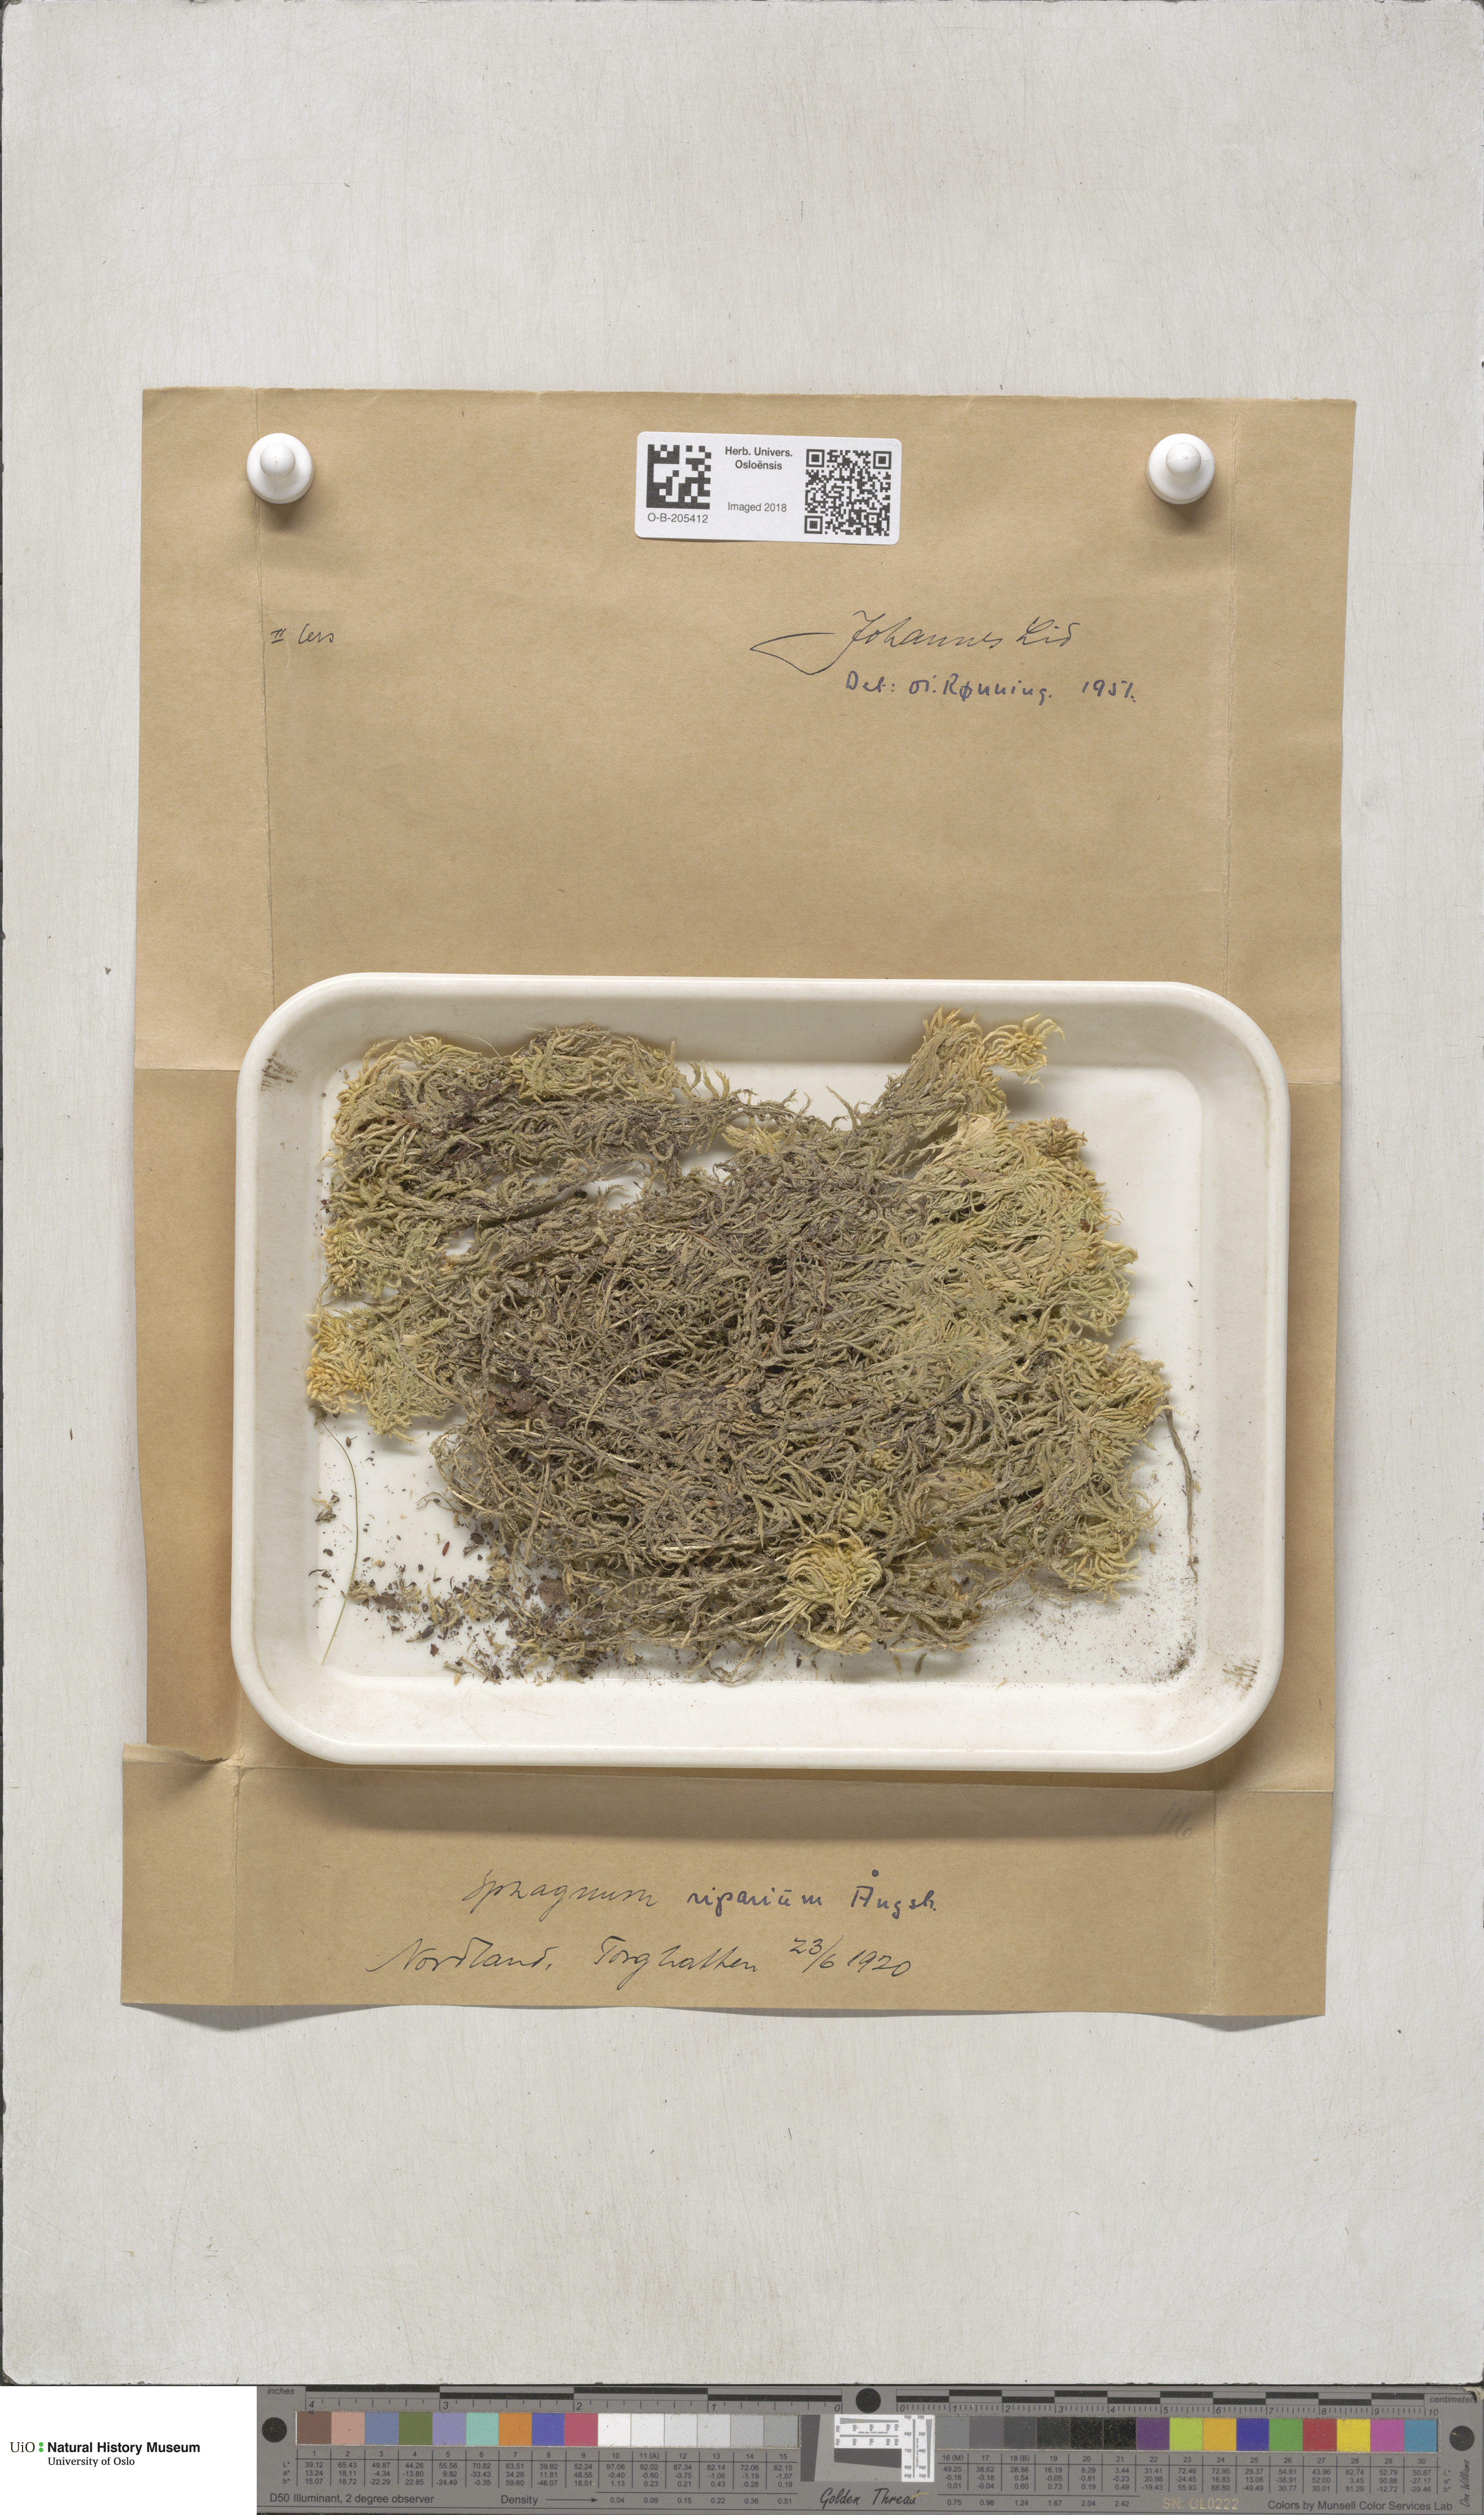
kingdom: Plantae
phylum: Bryophyta
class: Sphagnopsida
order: Sphagnales
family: Sphagnaceae
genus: Sphagnum
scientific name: Sphagnum riparium
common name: Streamside peat moss
